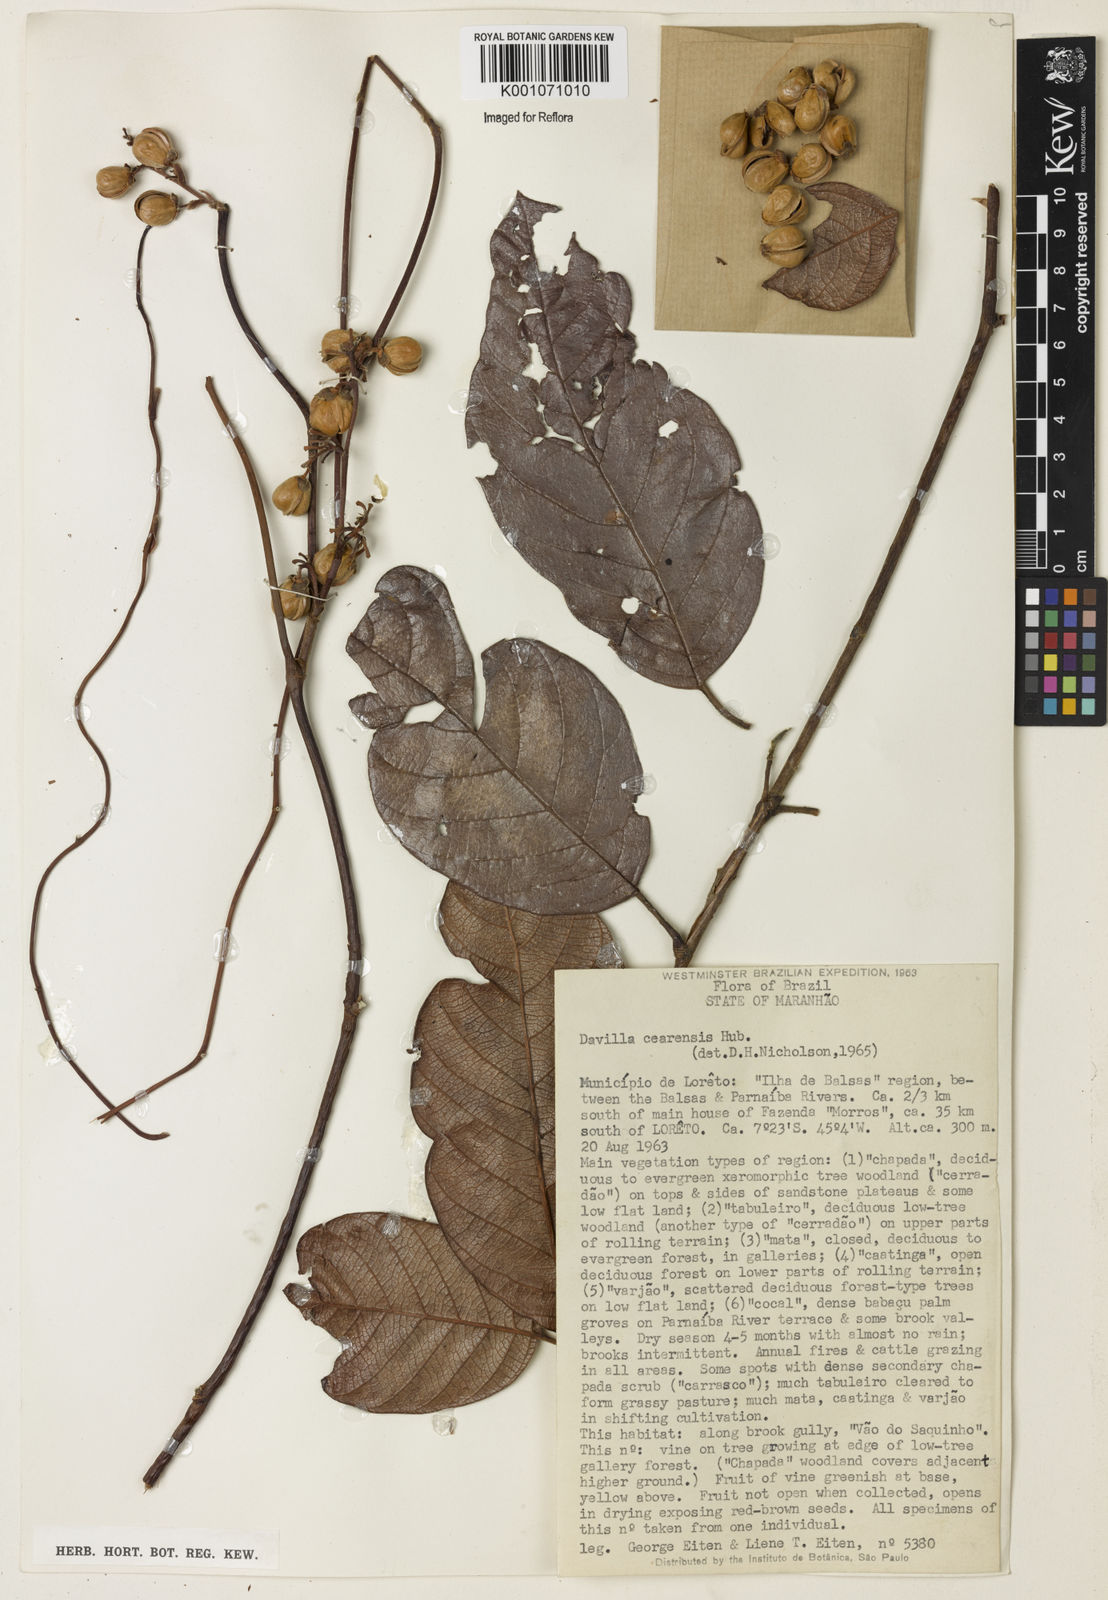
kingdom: Plantae
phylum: Tracheophyta
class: Magnoliopsida
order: Dilleniales
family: Dilleniaceae
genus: Davilla
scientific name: Davilla cearensis
